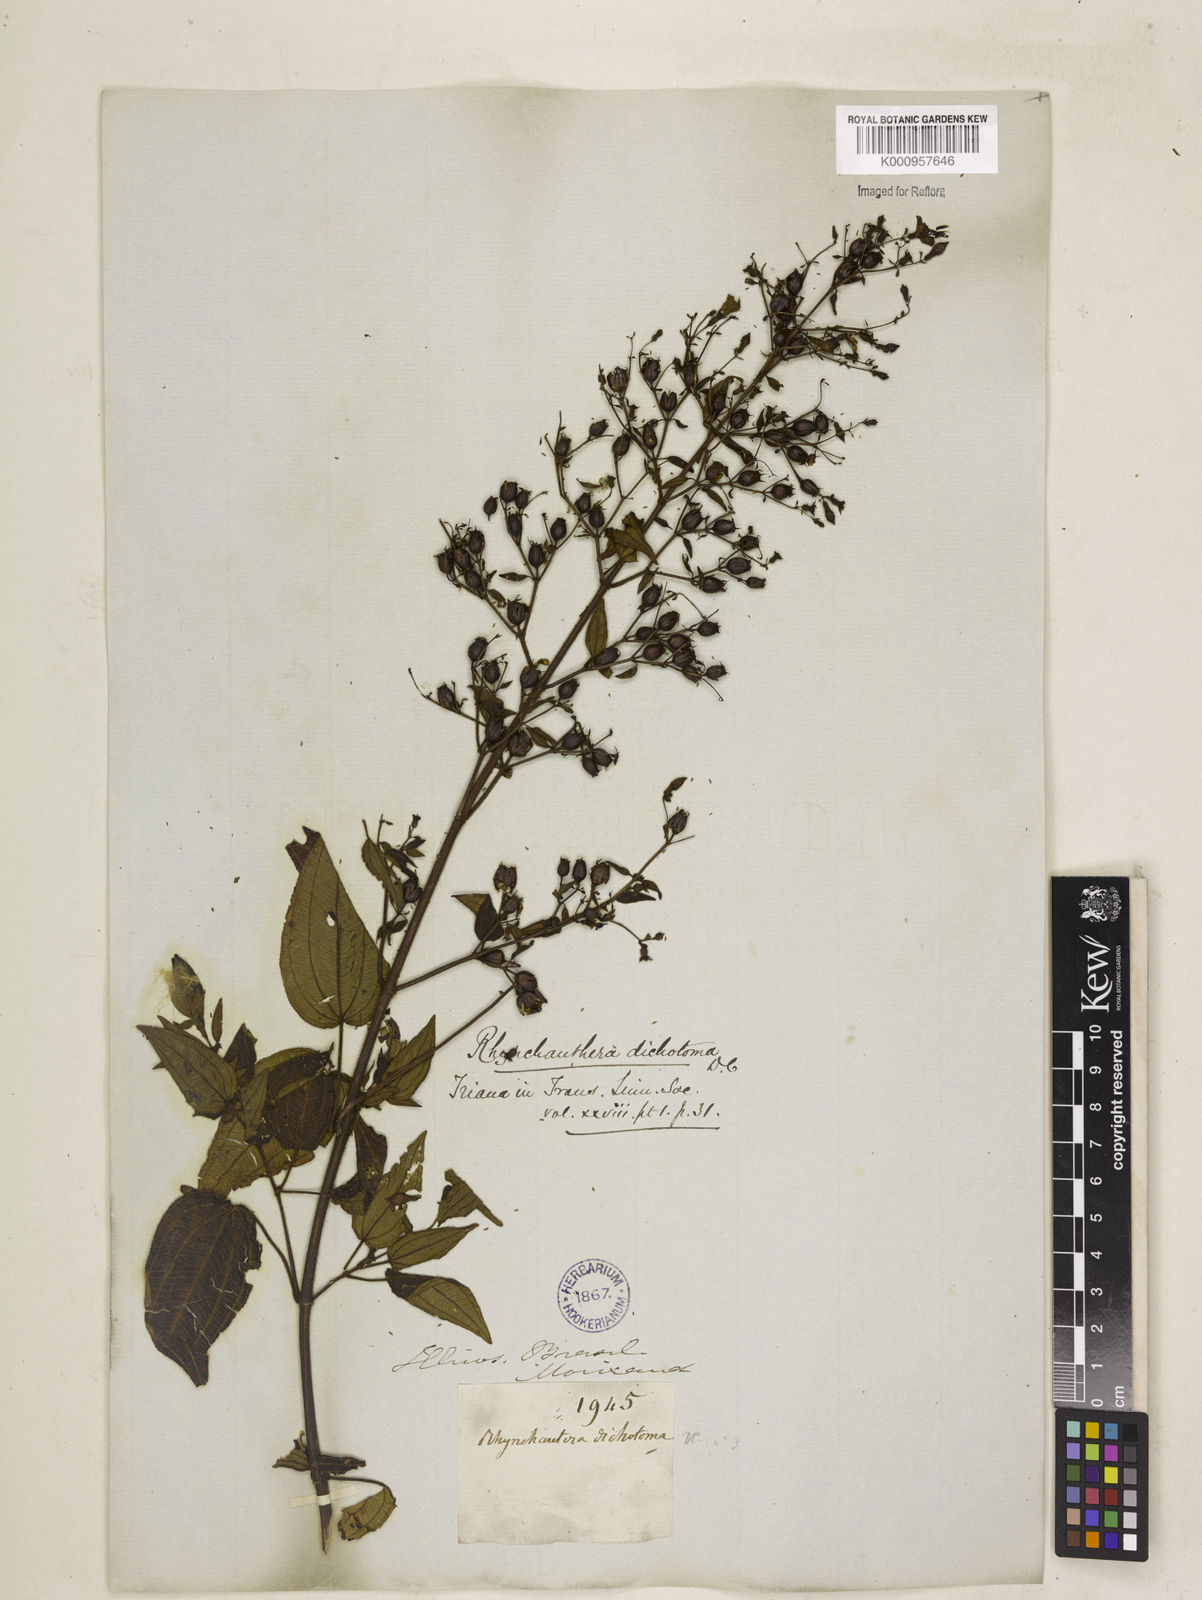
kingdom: Plantae
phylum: Tracheophyta
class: Magnoliopsida
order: Myrtales
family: Melastomataceae
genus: Rhynchanthera
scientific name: Rhynchanthera dichotoma
